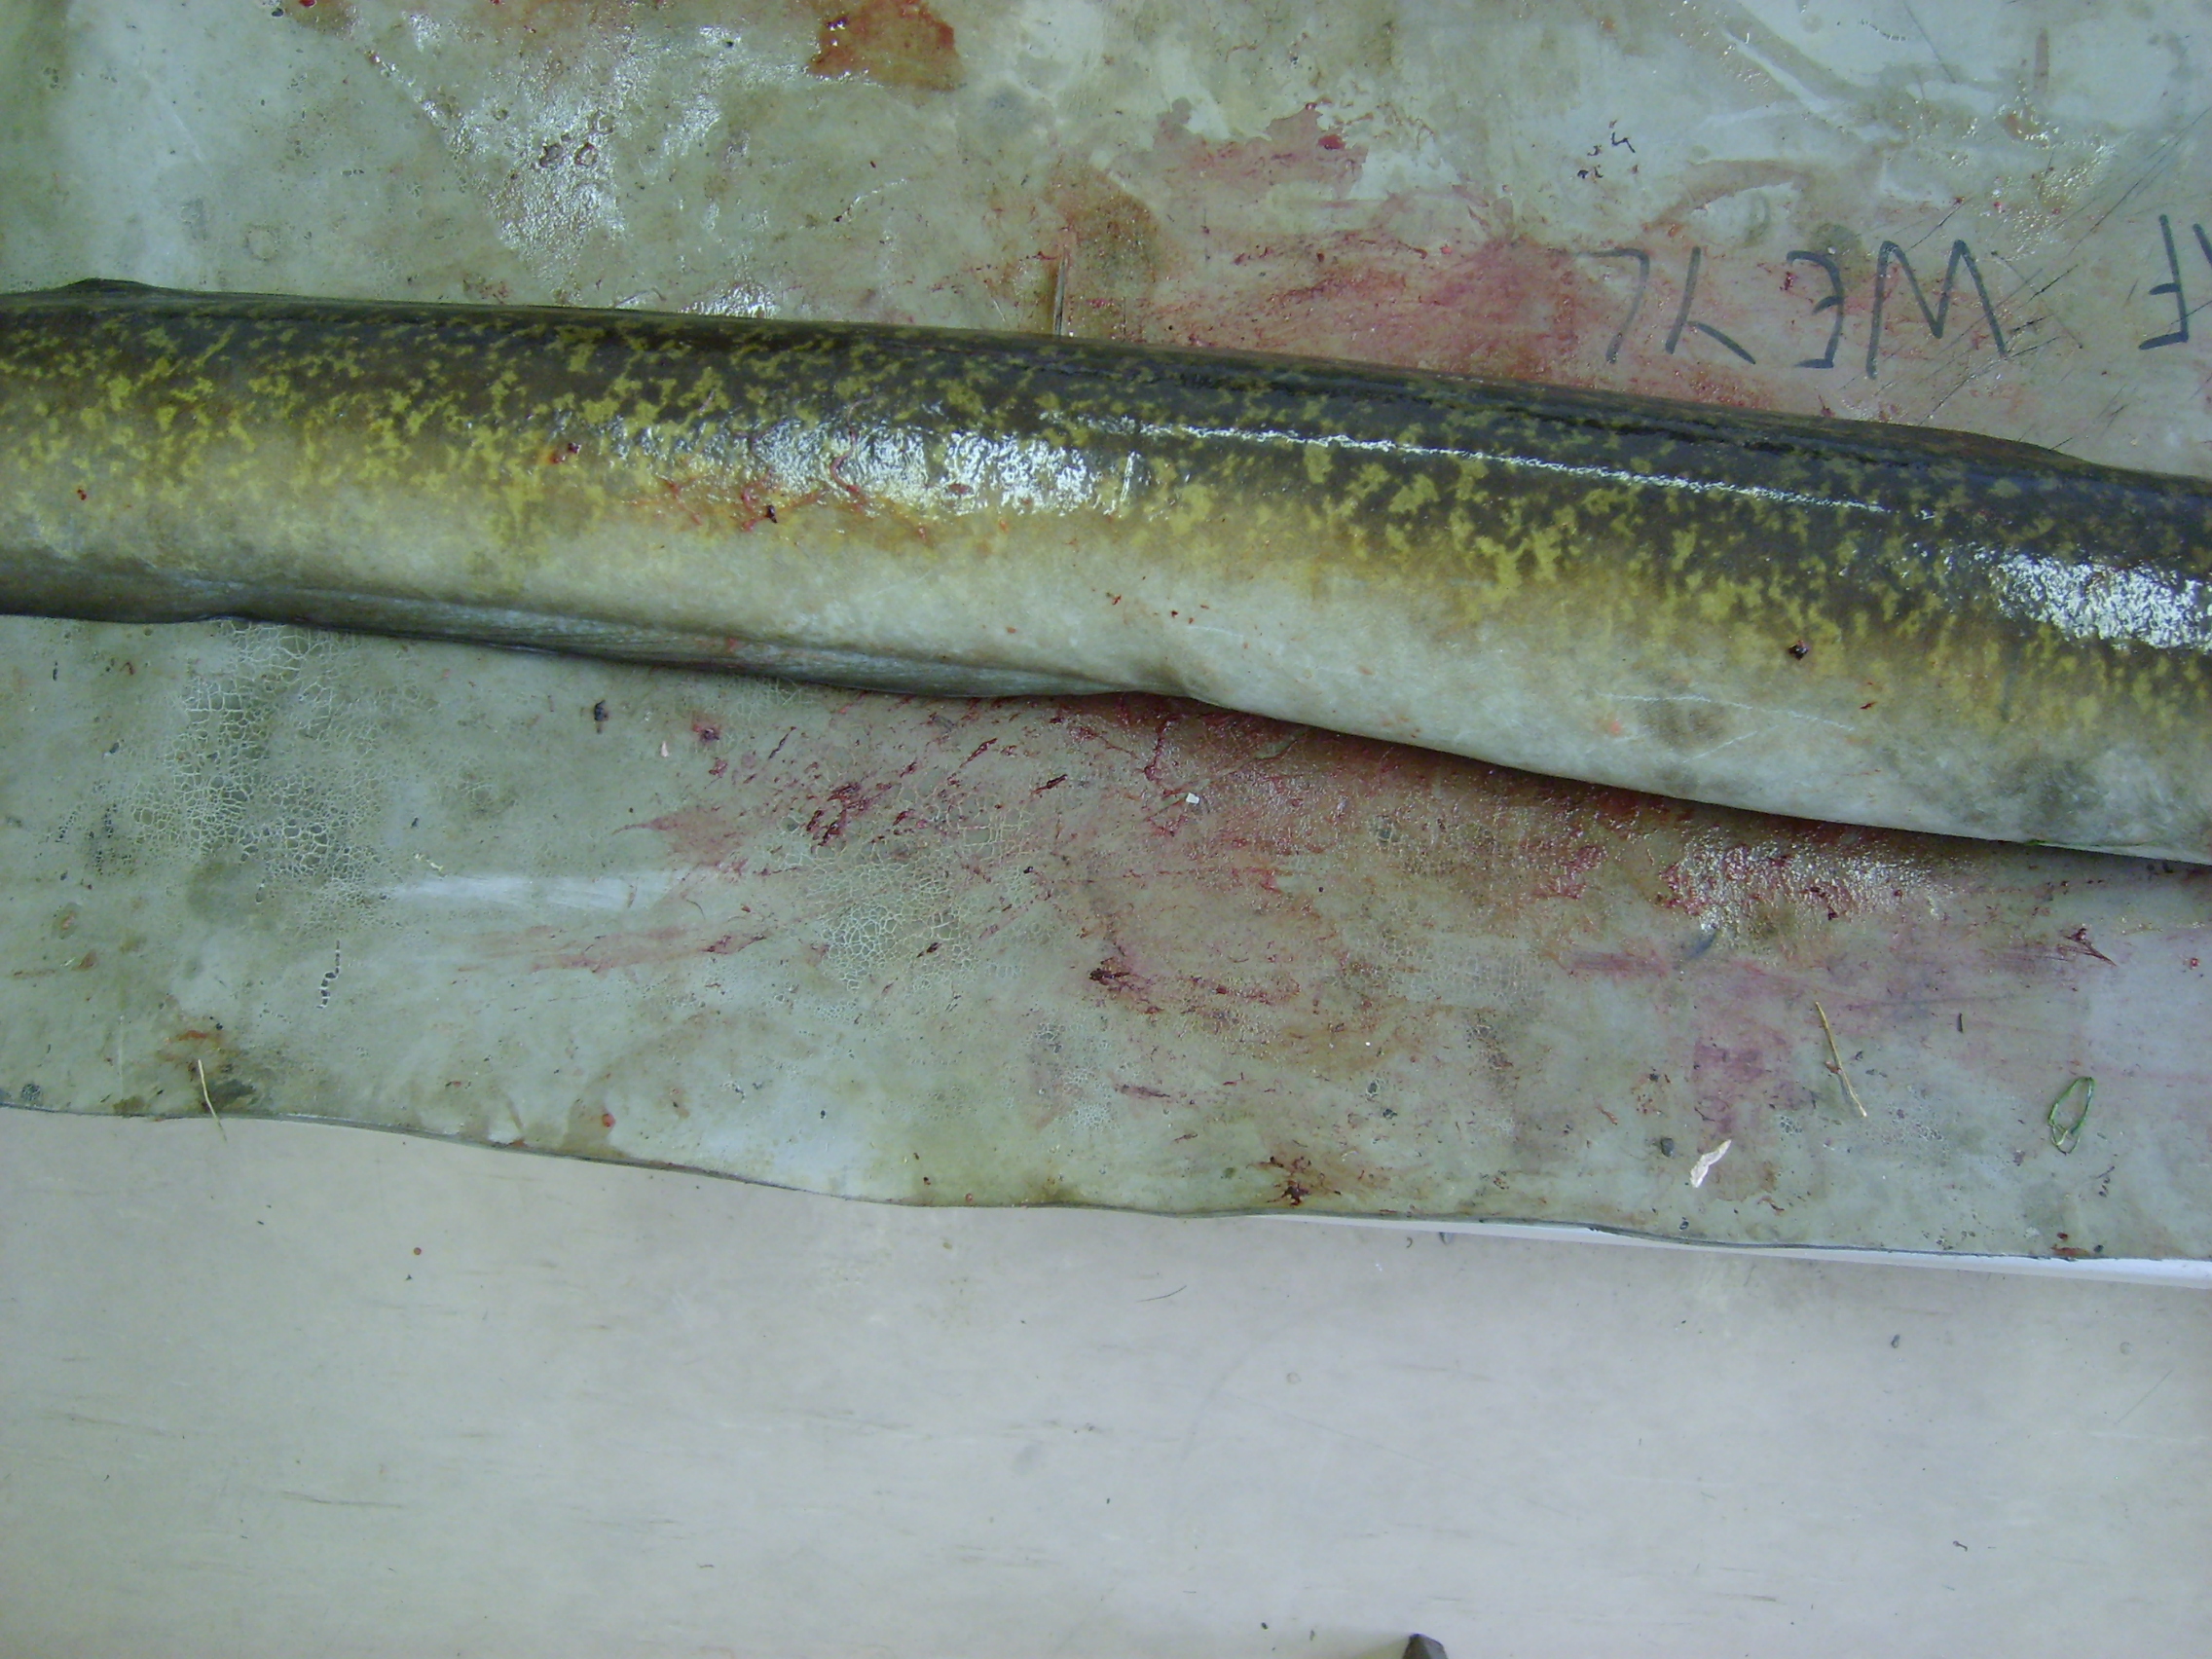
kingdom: Animalia
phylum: Chordata
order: Anguilliformes
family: Anguillidae
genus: Anguilla
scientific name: Anguilla marmorata
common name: Giant mottled eel
